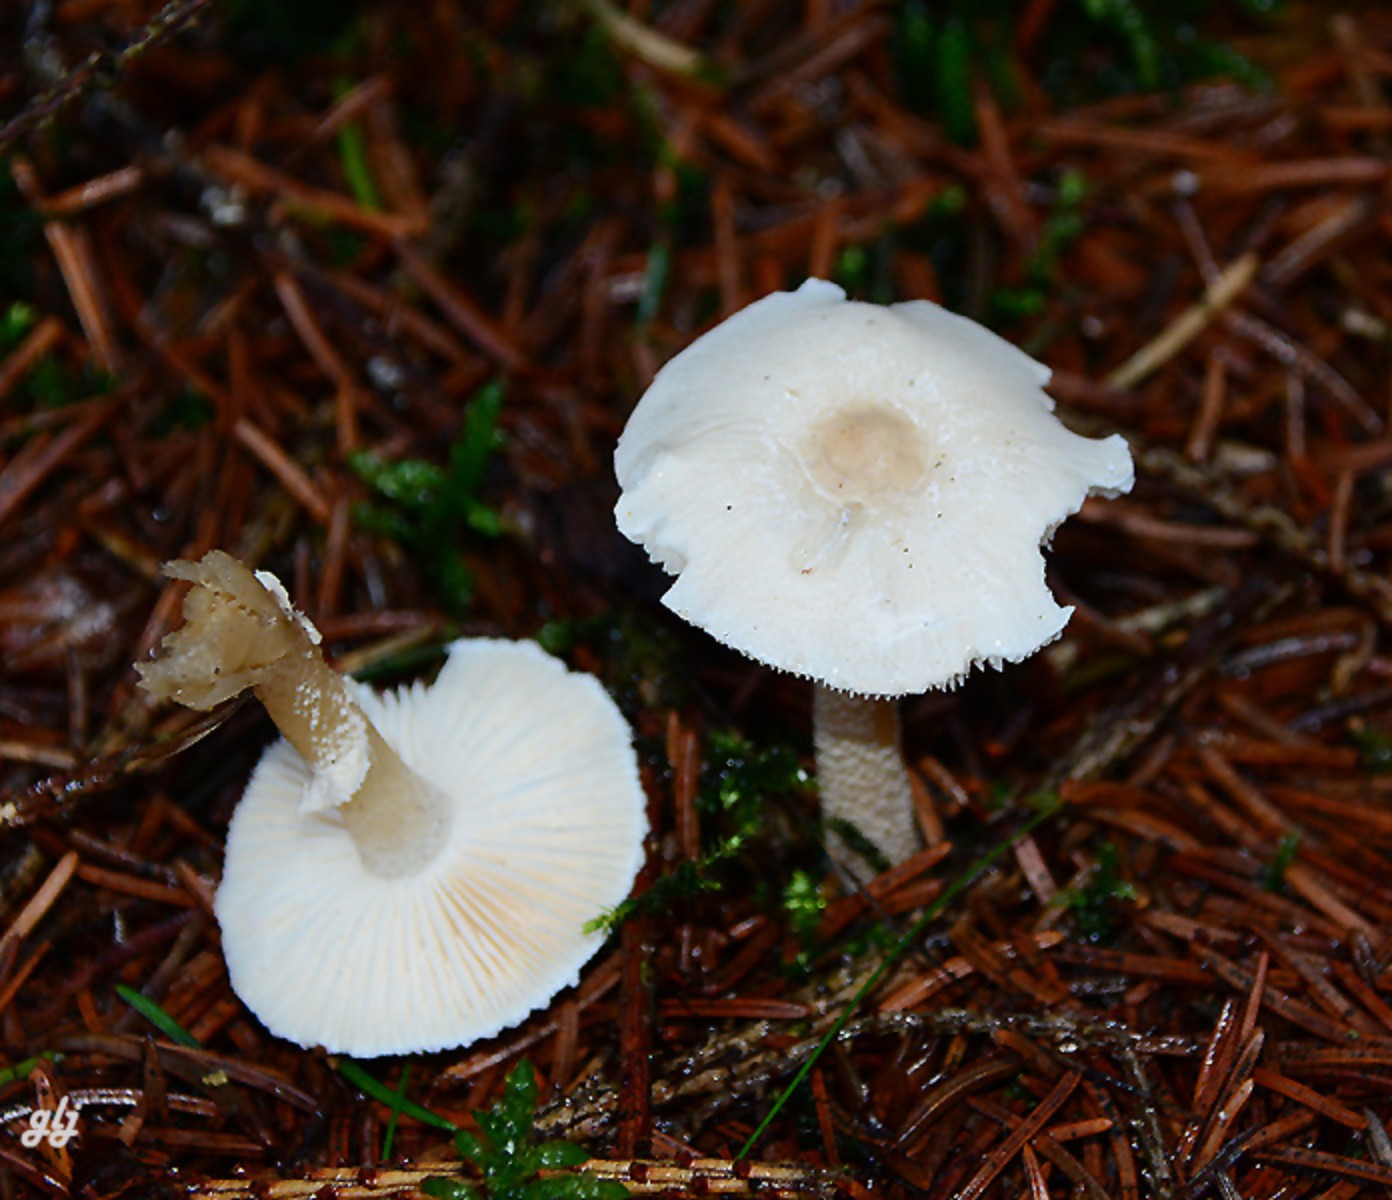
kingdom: Fungi
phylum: Basidiomycota
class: Agaricomycetes
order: Agaricales
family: Tricholomataceae
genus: Cystoderma
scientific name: Cystoderma carcharias
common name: rødgrå grynhat
